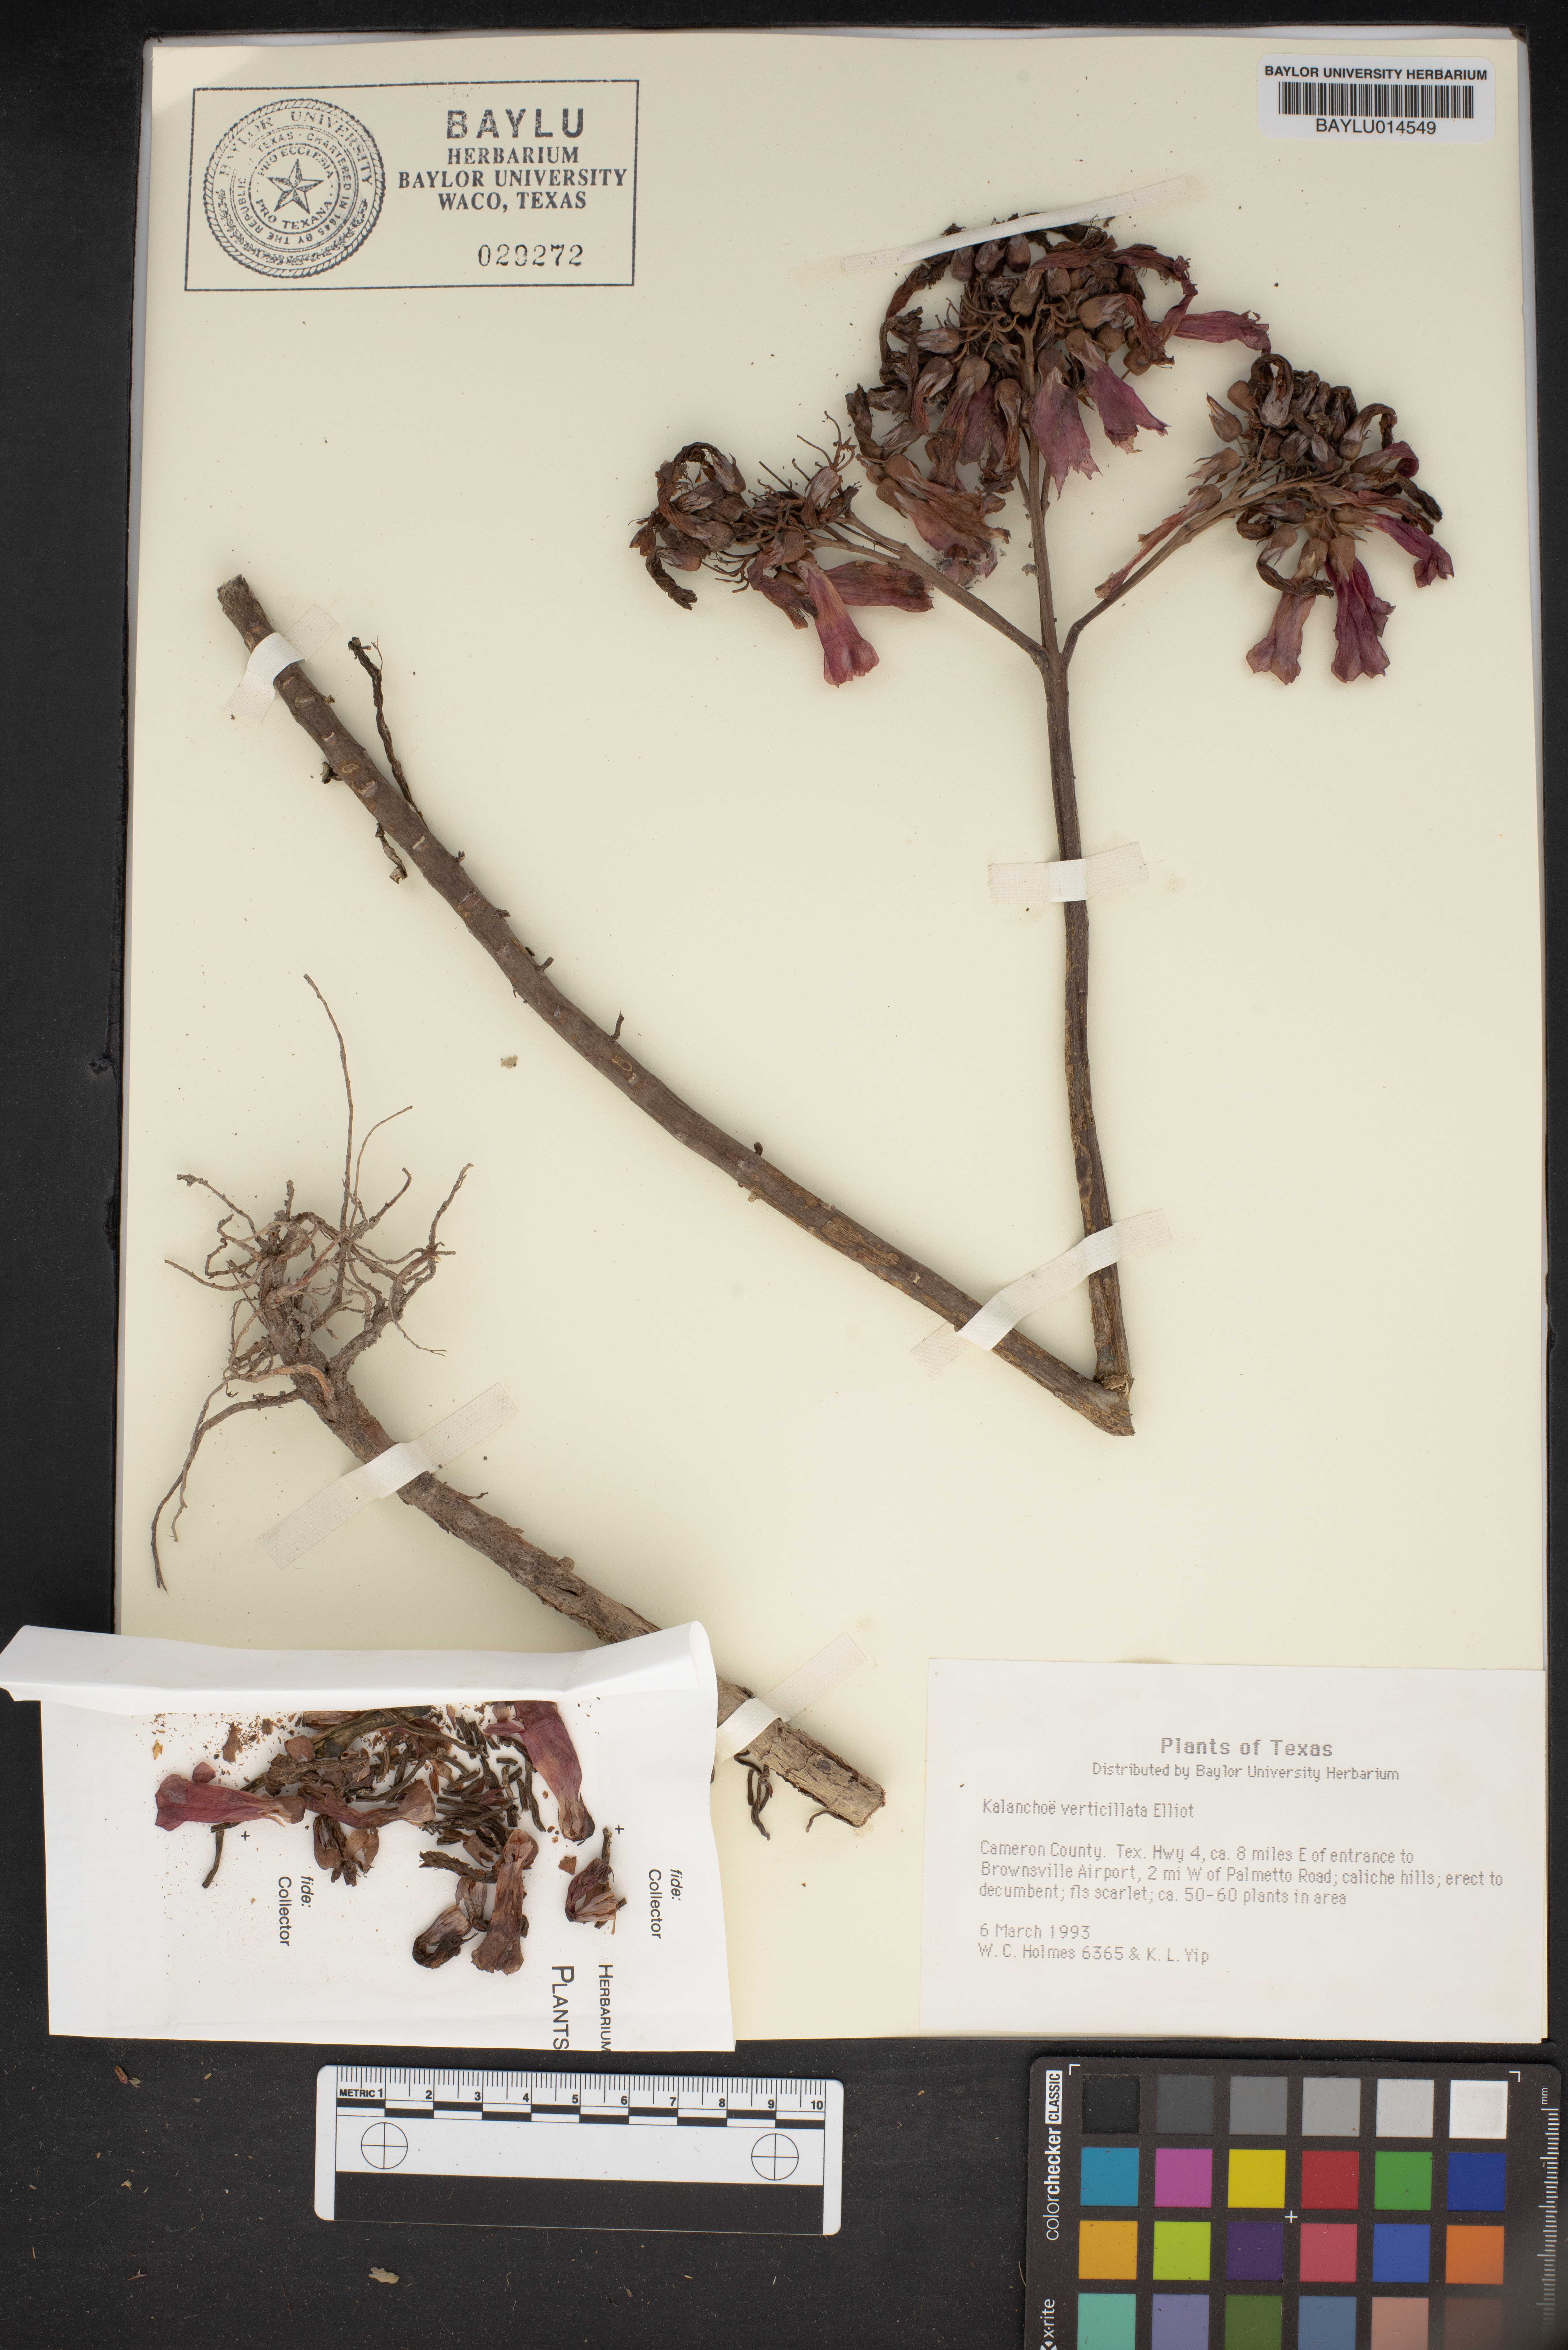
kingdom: Plantae
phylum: Tracheophyta
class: Magnoliopsida
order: Saxifragales
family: Crassulaceae
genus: Kalanchoe
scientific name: Kalanchoe delagoensis
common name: Chandelier plant
